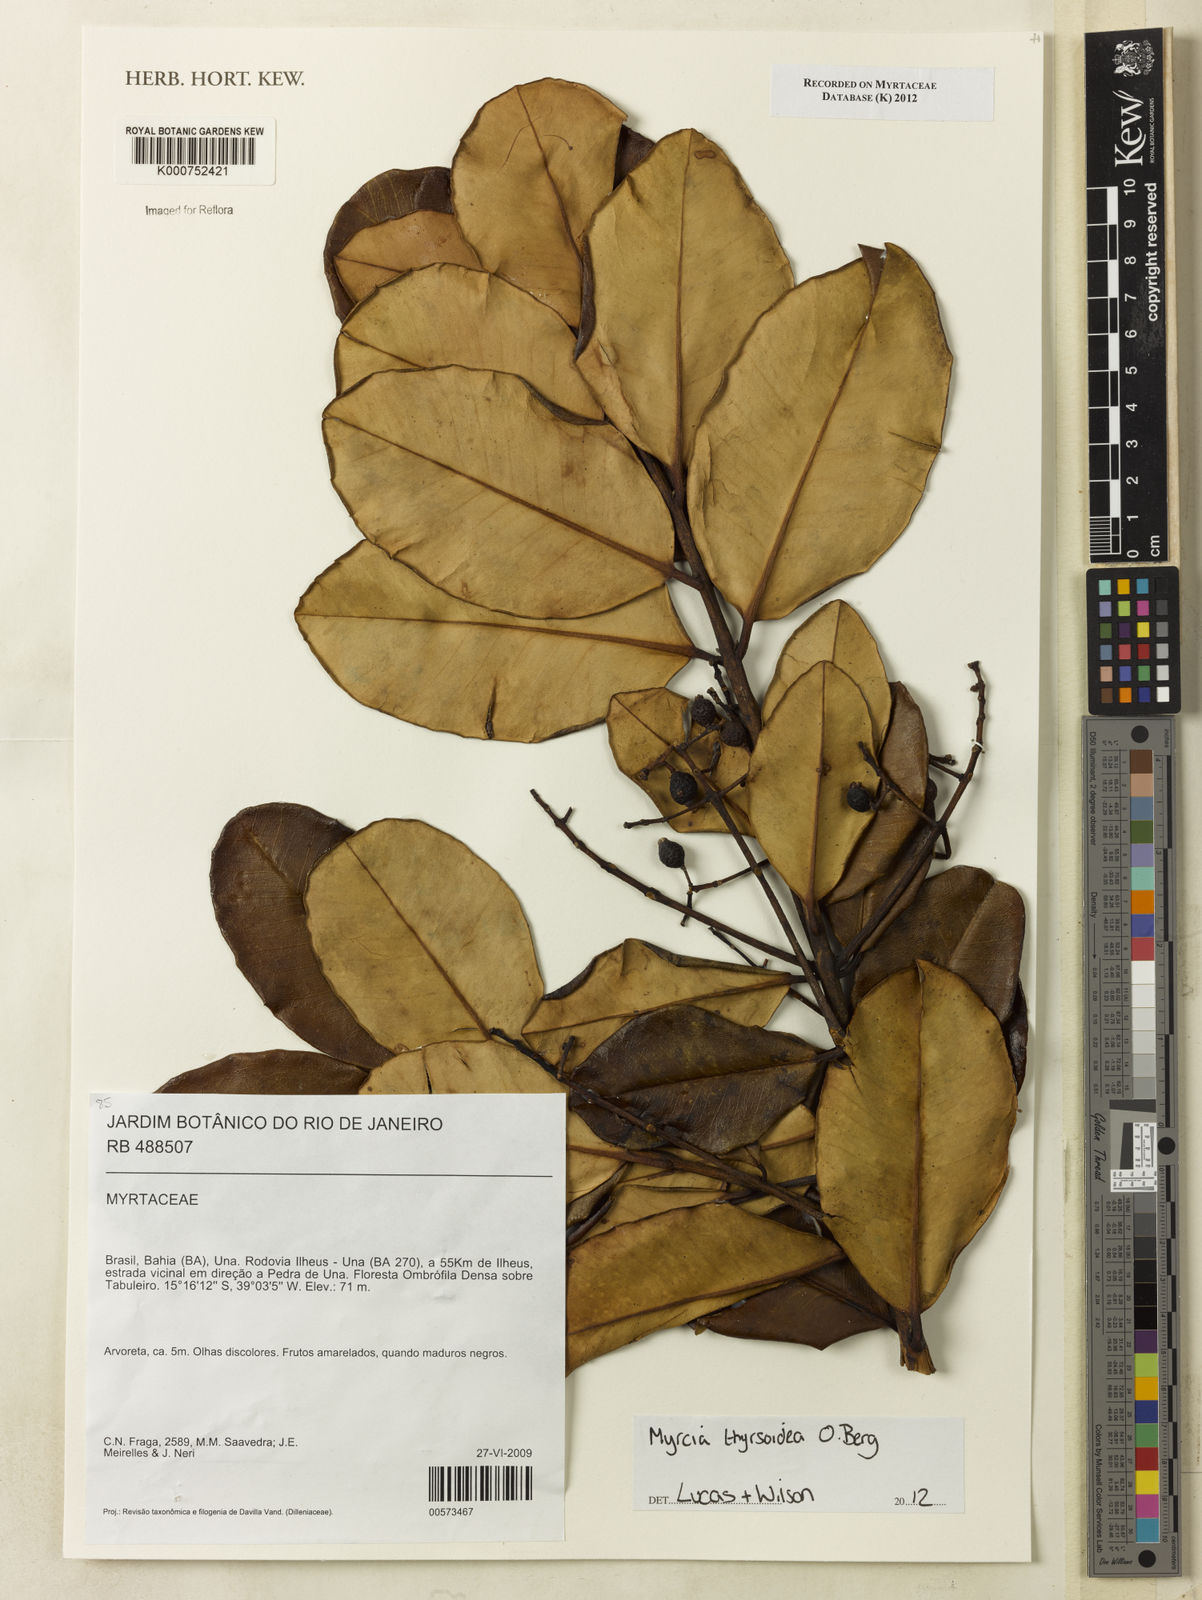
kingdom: Plantae
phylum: Tracheophyta
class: Magnoliopsida
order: Myrtales
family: Myrtaceae
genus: Myrcia
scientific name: Myrcia thyrsoidea
